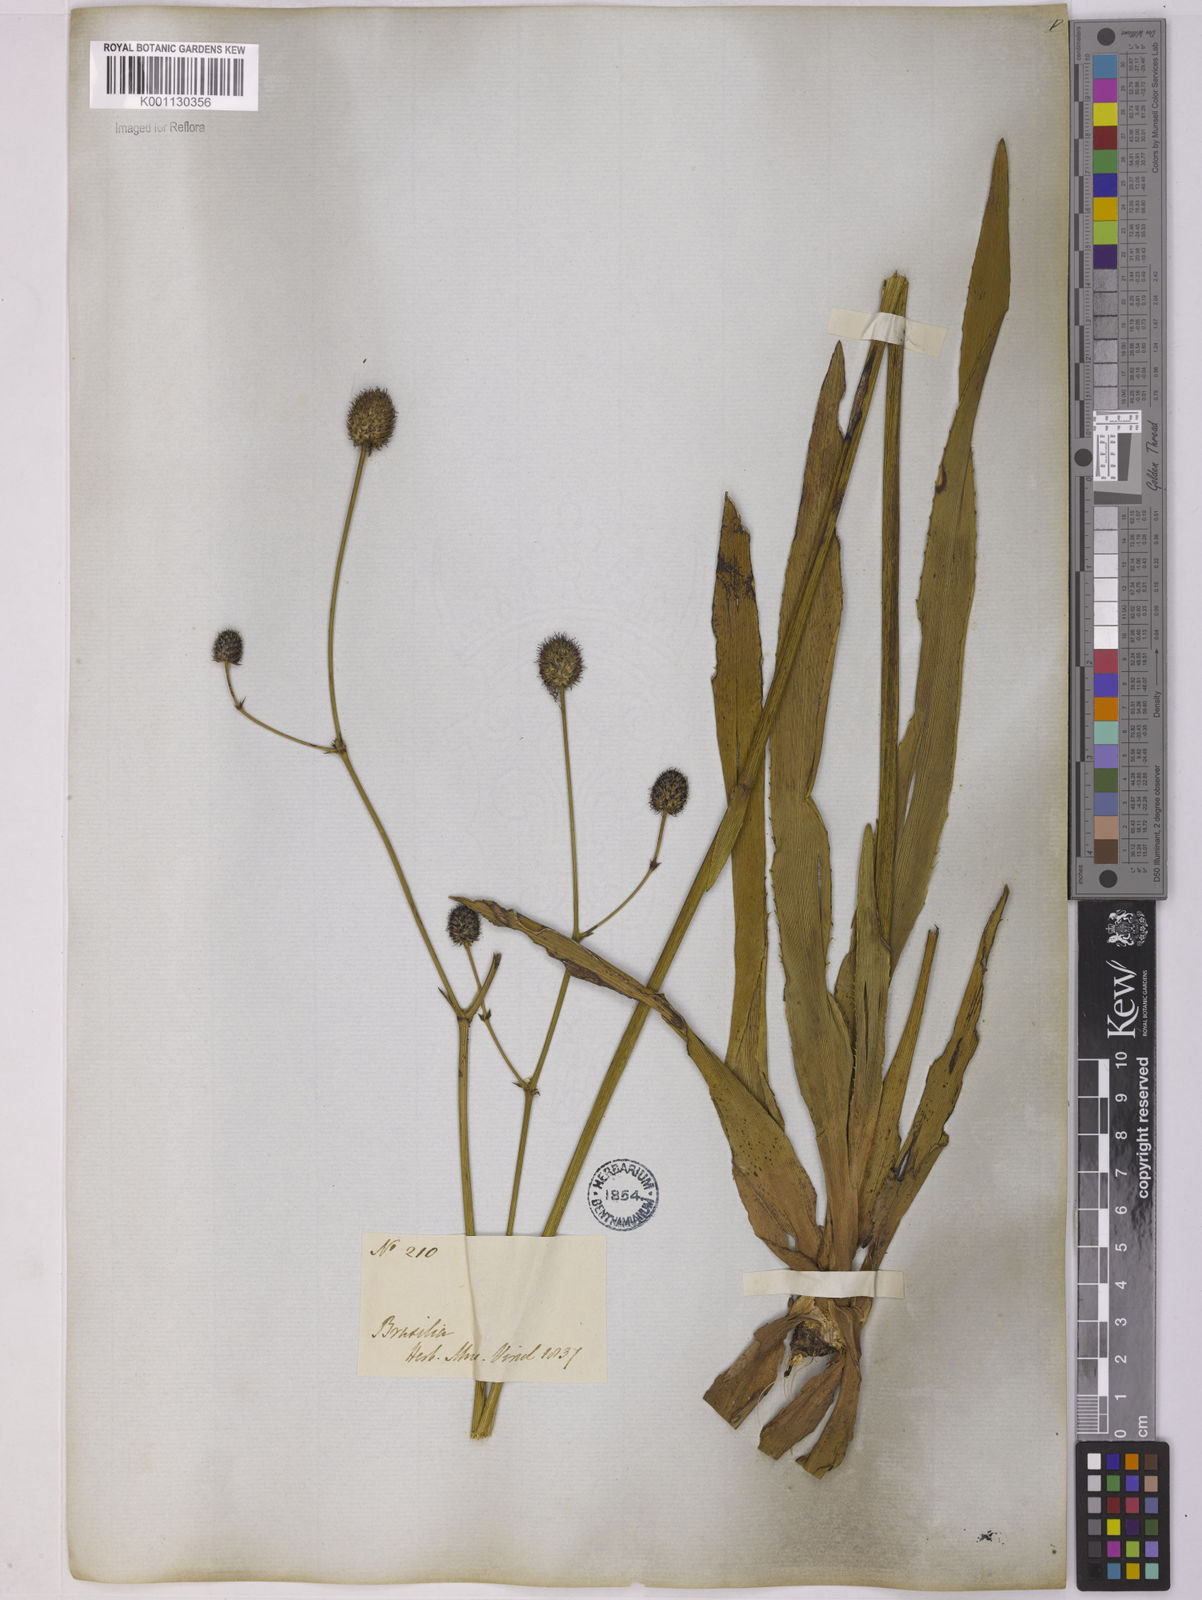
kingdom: Plantae
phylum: Tracheophyta
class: Magnoliopsida
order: Apiales
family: Apiaceae
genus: Eryngium
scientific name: Eryngium sanguisorba
